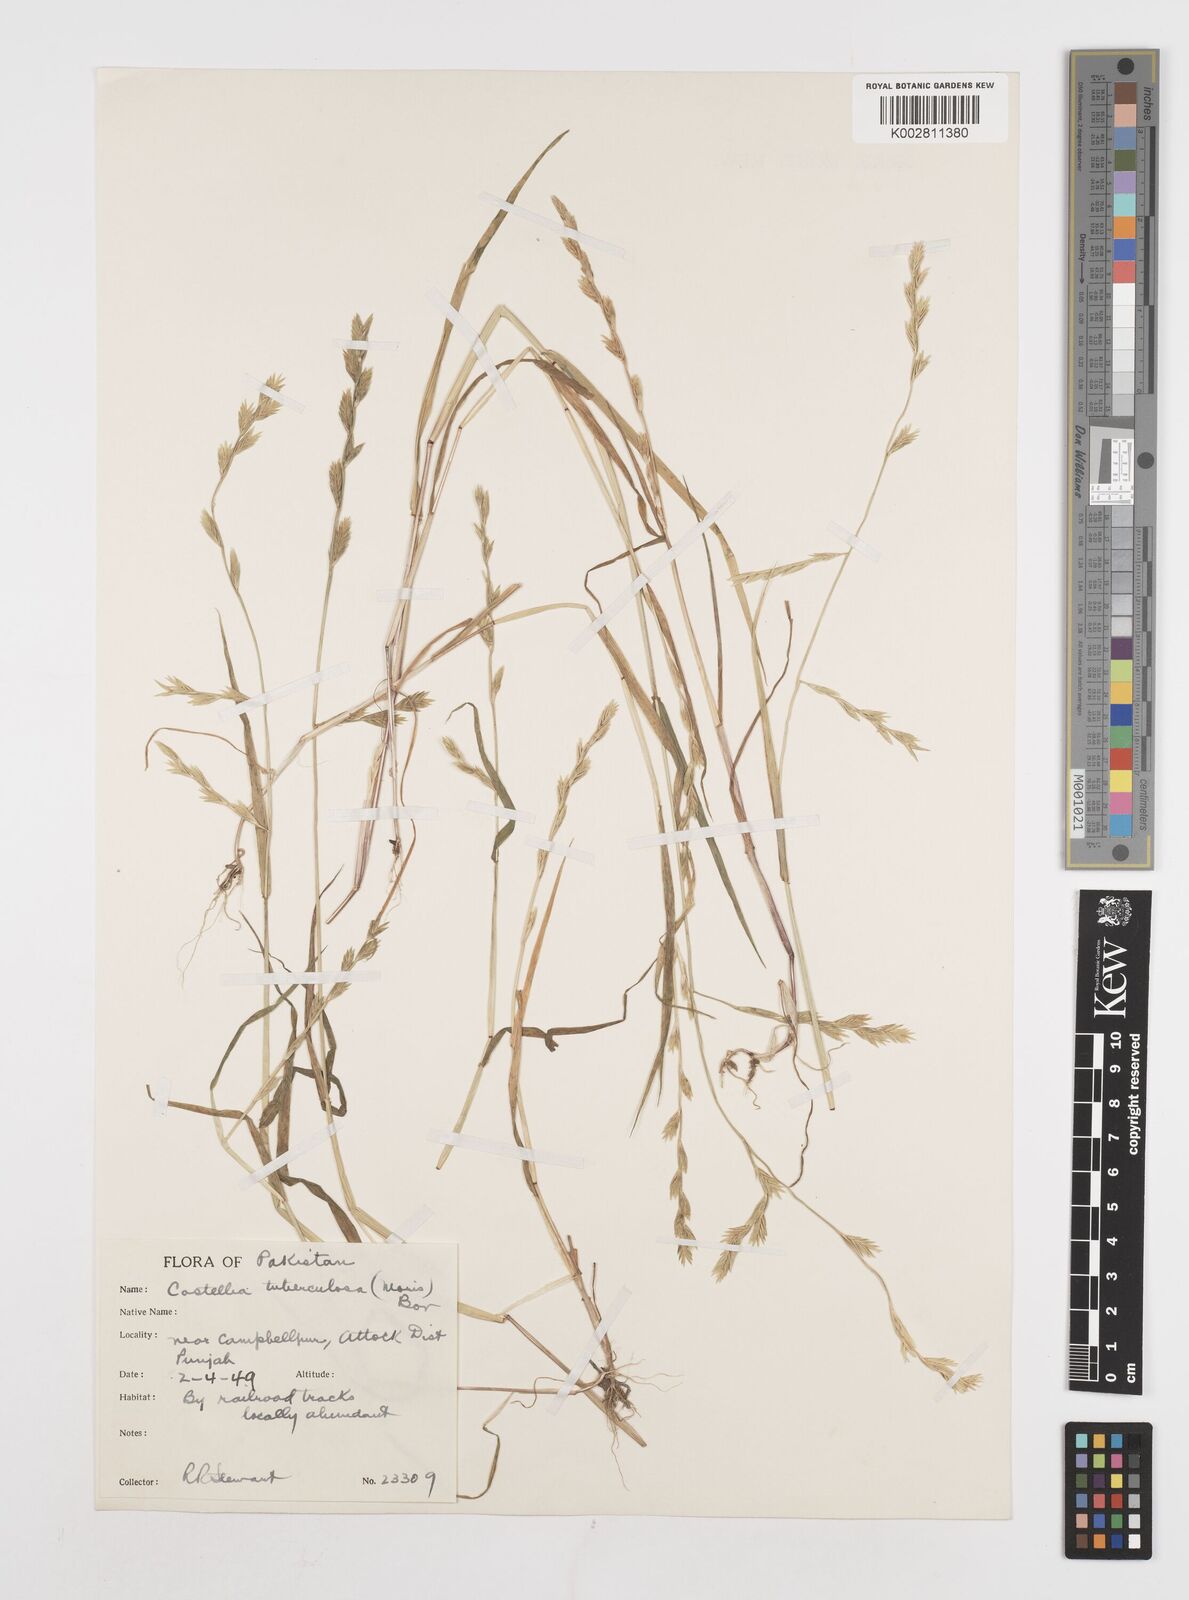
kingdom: Plantae
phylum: Tracheophyta
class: Liliopsida
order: Poales
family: Poaceae
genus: Castellia
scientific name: Castellia tuberculosa
